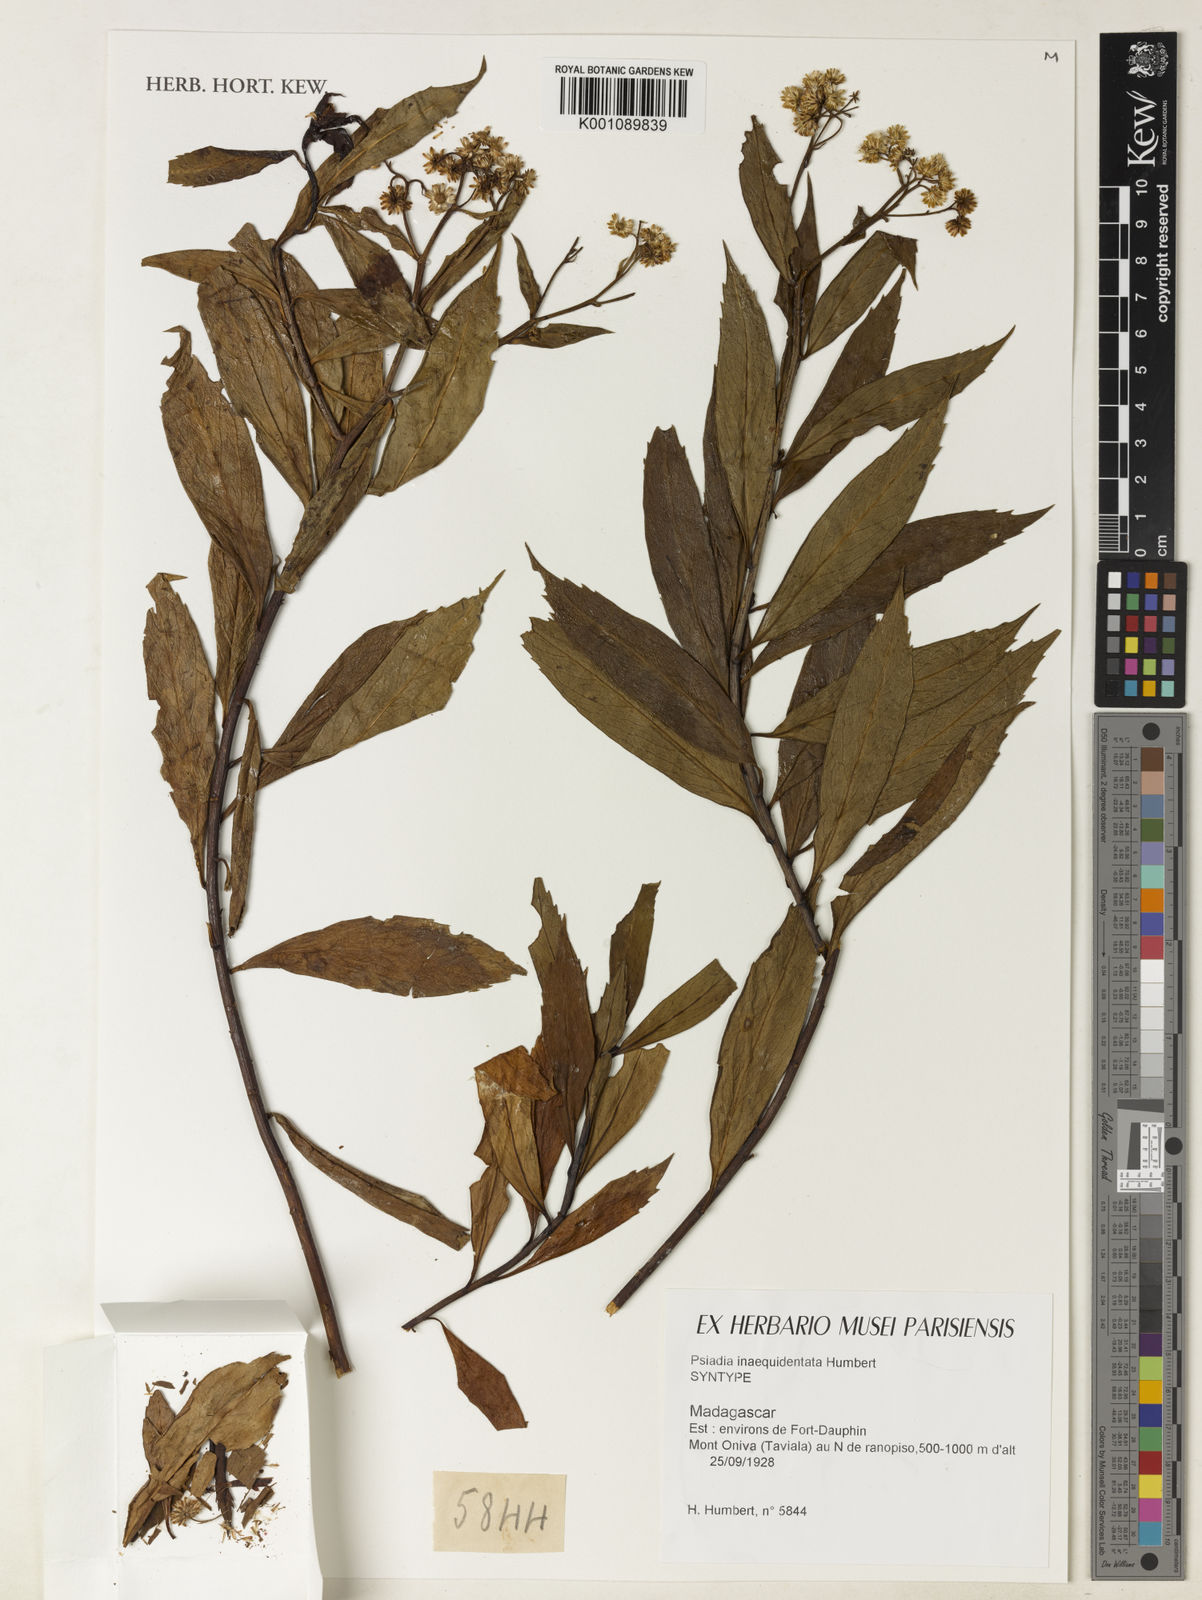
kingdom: Plantae
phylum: Tracheophyta
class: Magnoliopsida
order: Asterales
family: Asteraceae
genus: Psiadia
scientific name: Psiadia inaequidentata
